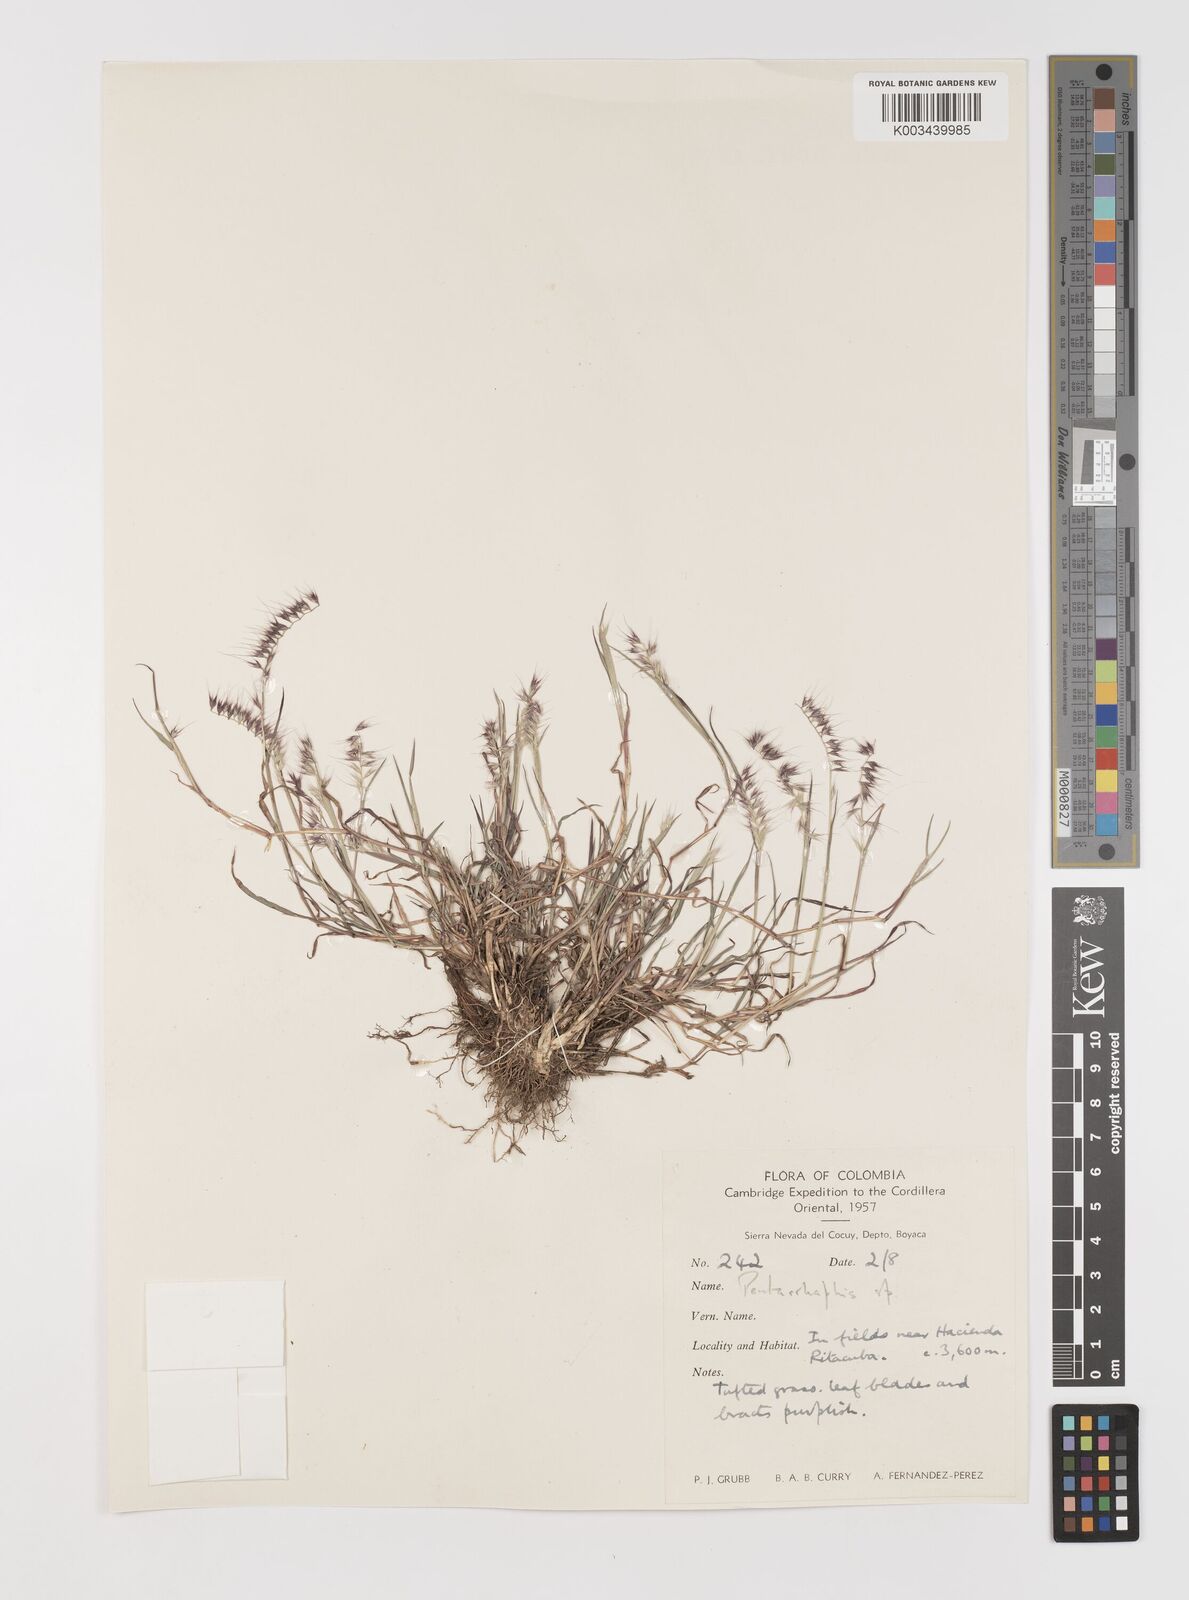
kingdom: Plantae
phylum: Tracheophyta
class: Liliopsida
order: Poales
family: Poaceae
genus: Muhlenbergia
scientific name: Muhlenbergia cenchroides
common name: Relaxgrass
